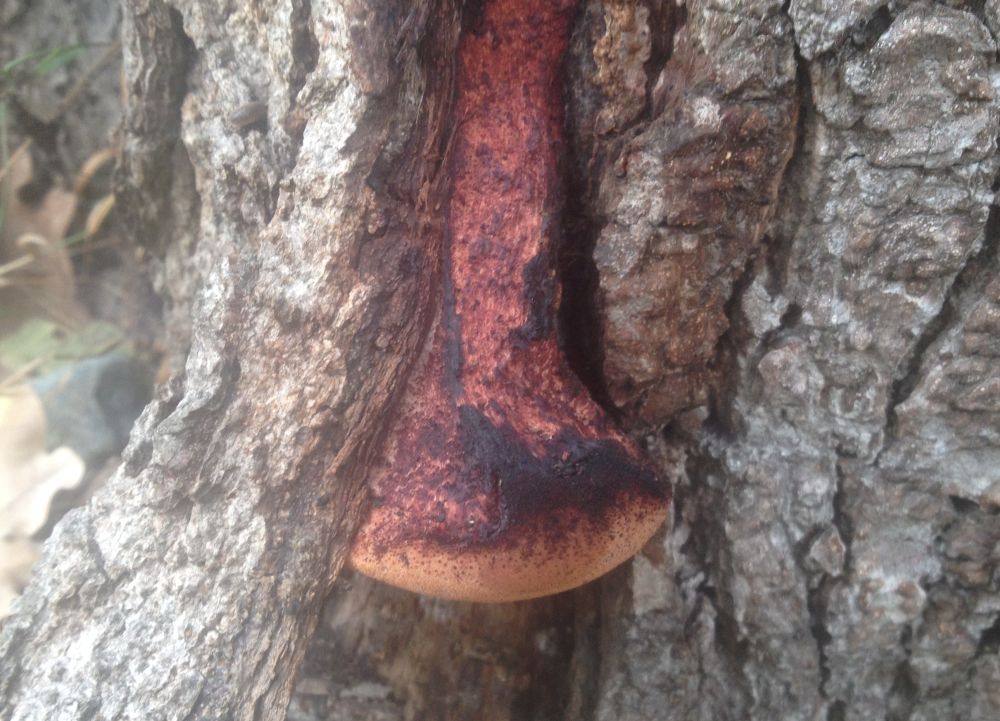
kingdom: Fungi
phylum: Basidiomycota
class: Agaricomycetes
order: Agaricales
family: Fistulinaceae
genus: Fistulina
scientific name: Fistulina hepatica
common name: oksetunge
